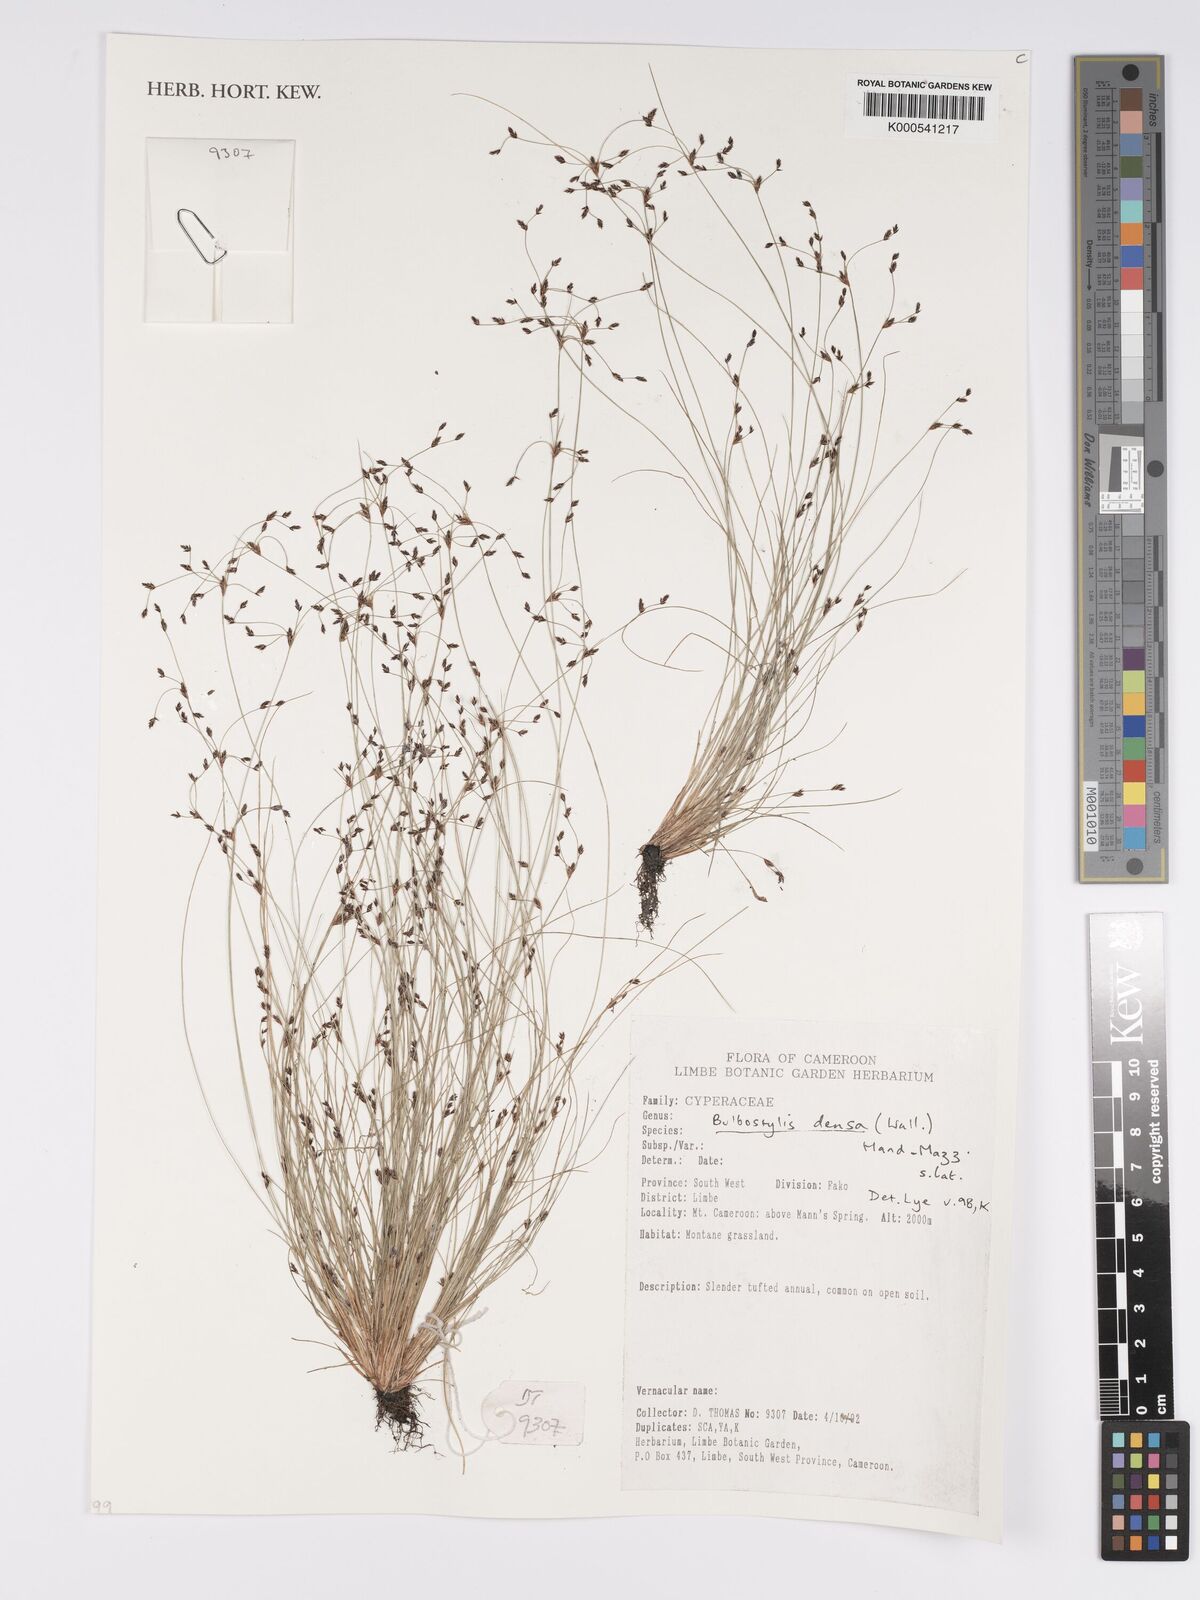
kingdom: Plantae
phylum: Tracheophyta
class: Liliopsida
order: Poales
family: Cyperaceae
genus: Bulbostylis
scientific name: Bulbostylis densa
